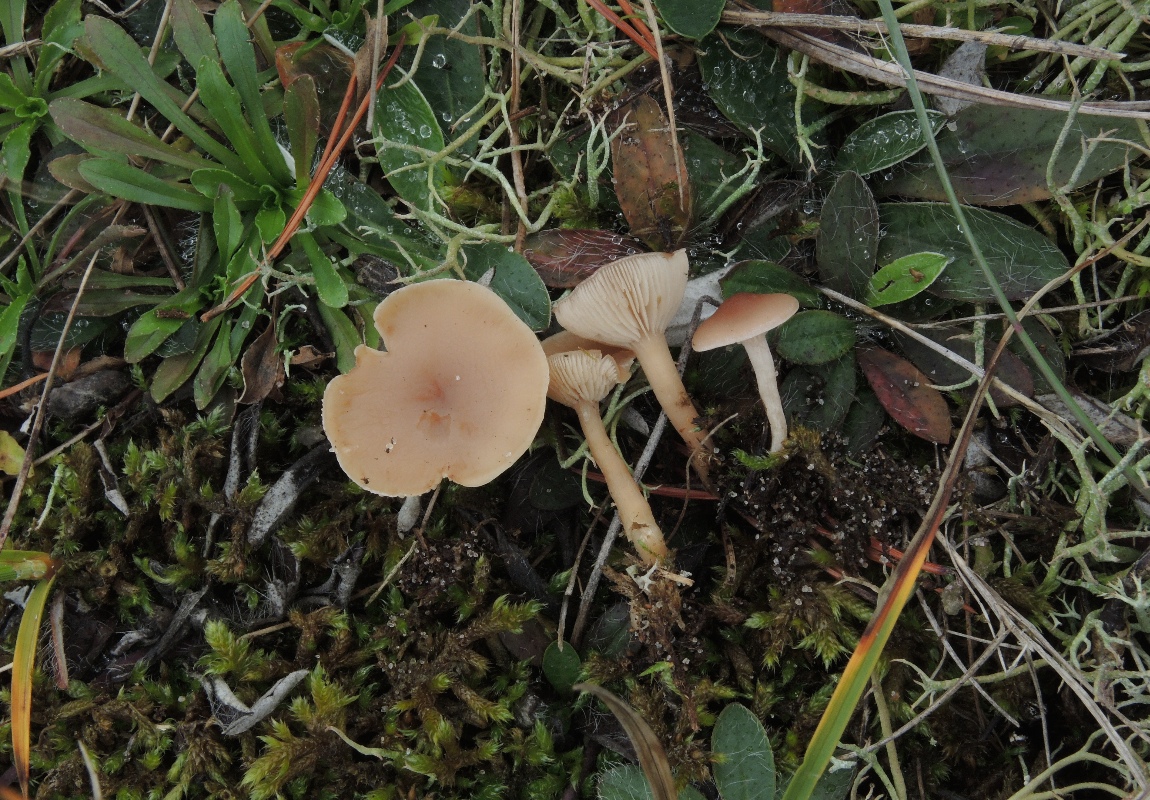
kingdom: Fungi
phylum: Basidiomycota
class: Agaricomycetes
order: Agaricales
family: Tricholomataceae
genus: Clitocybe
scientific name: Clitocybe leucodiatreta
